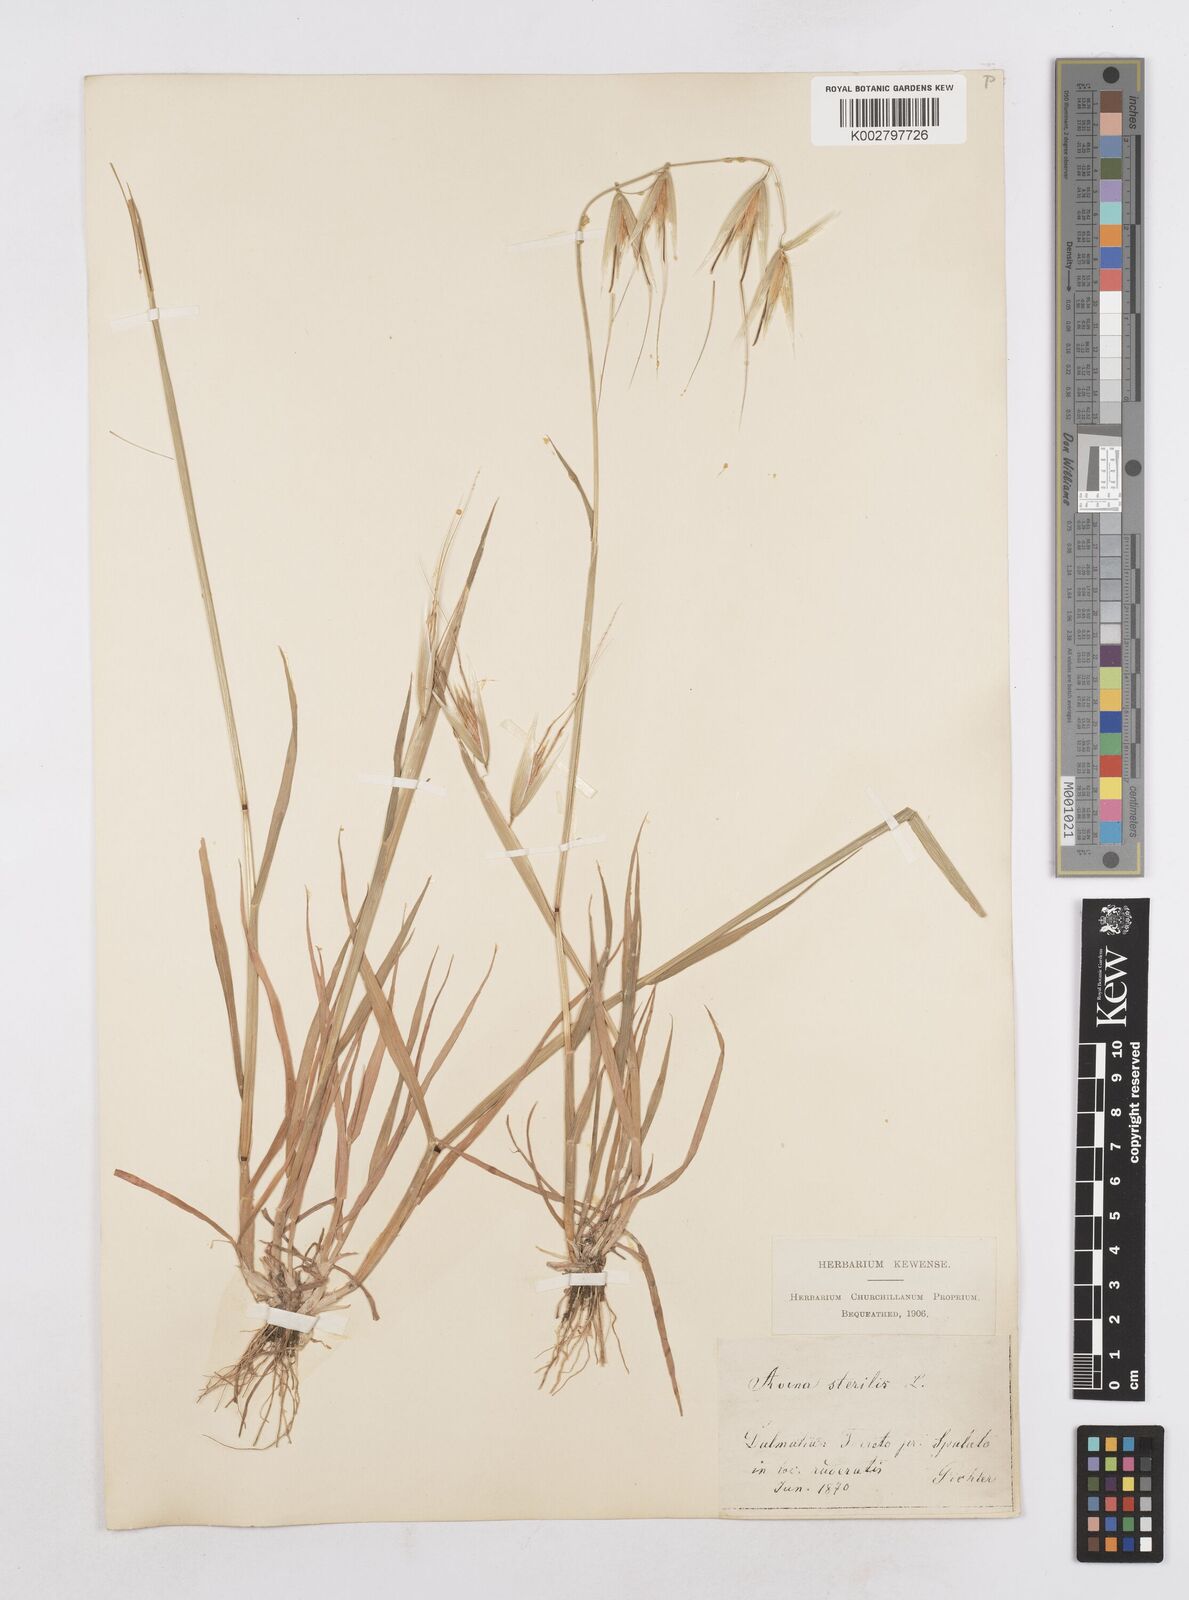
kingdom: Plantae
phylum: Tracheophyta
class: Liliopsida
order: Poales
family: Poaceae
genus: Avena
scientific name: Avena sterilis
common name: Animated oat
